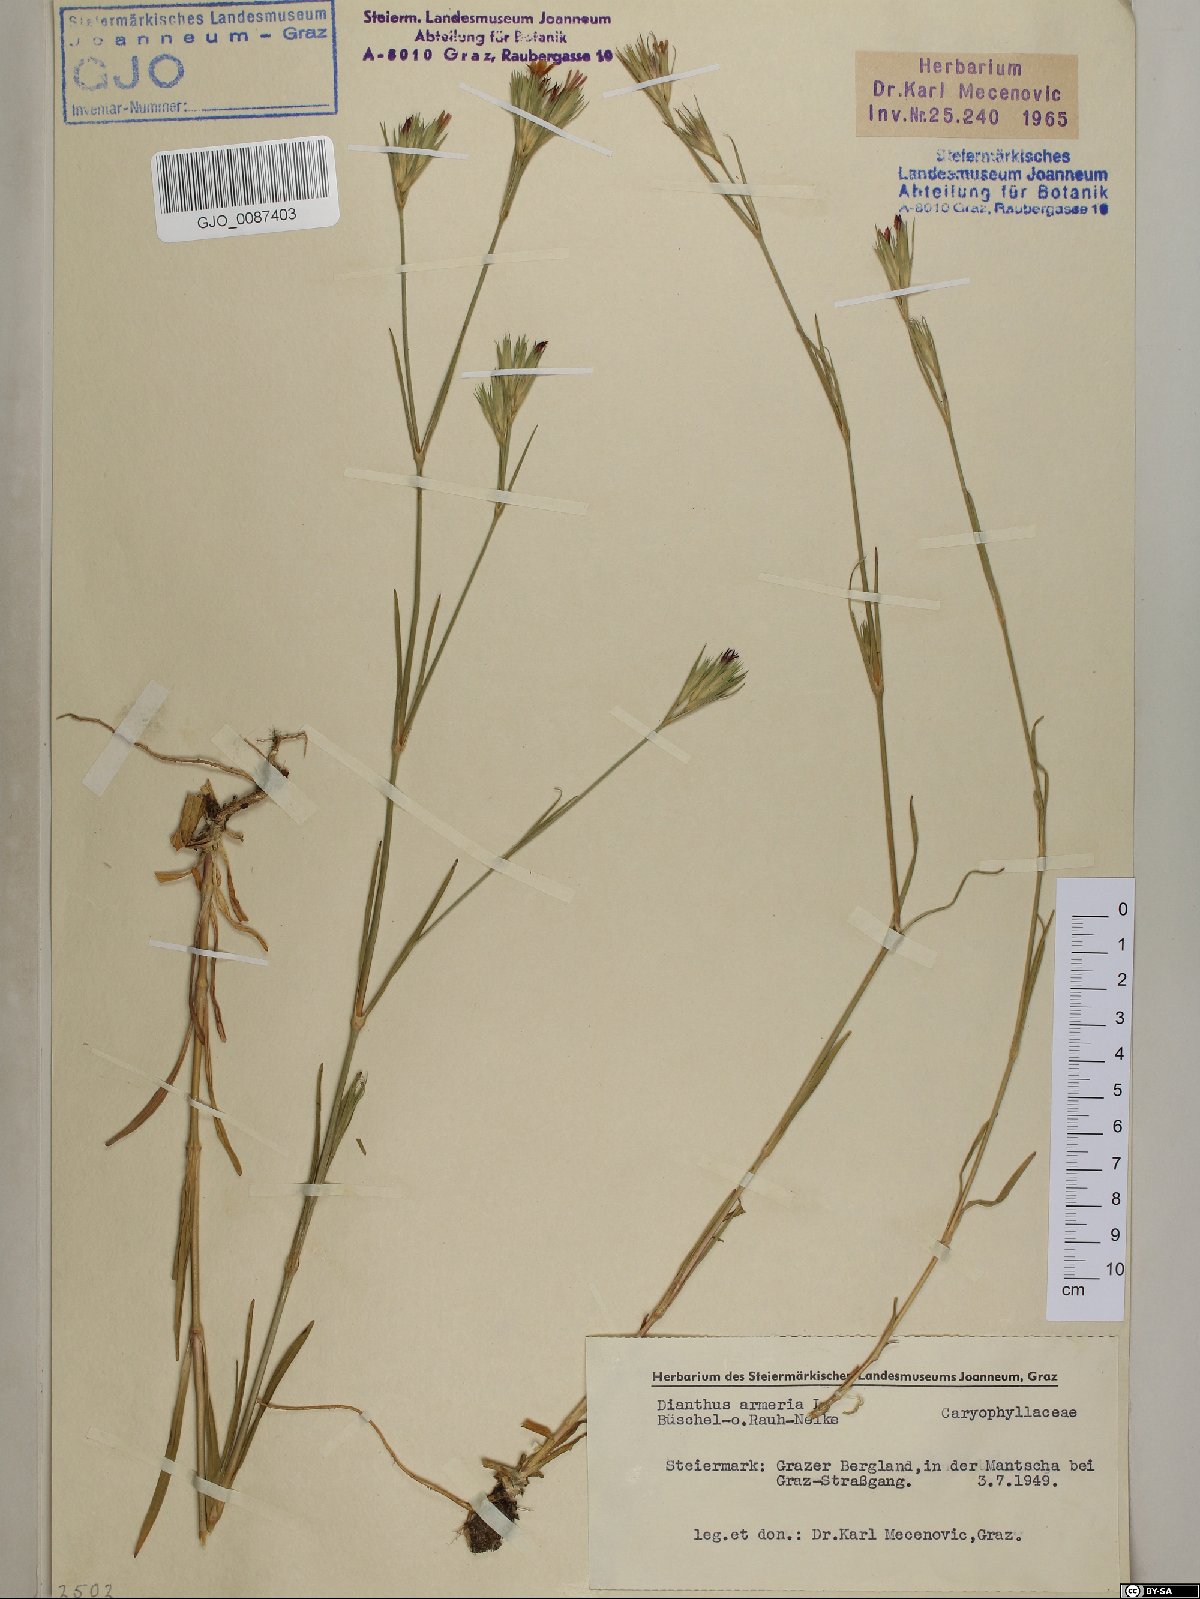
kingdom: Plantae
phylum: Tracheophyta
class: Magnoliopsida
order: Caryophyllales
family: Caryophyllaceae
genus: Dianthus
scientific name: Dianthus armeria
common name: Deptford pink
